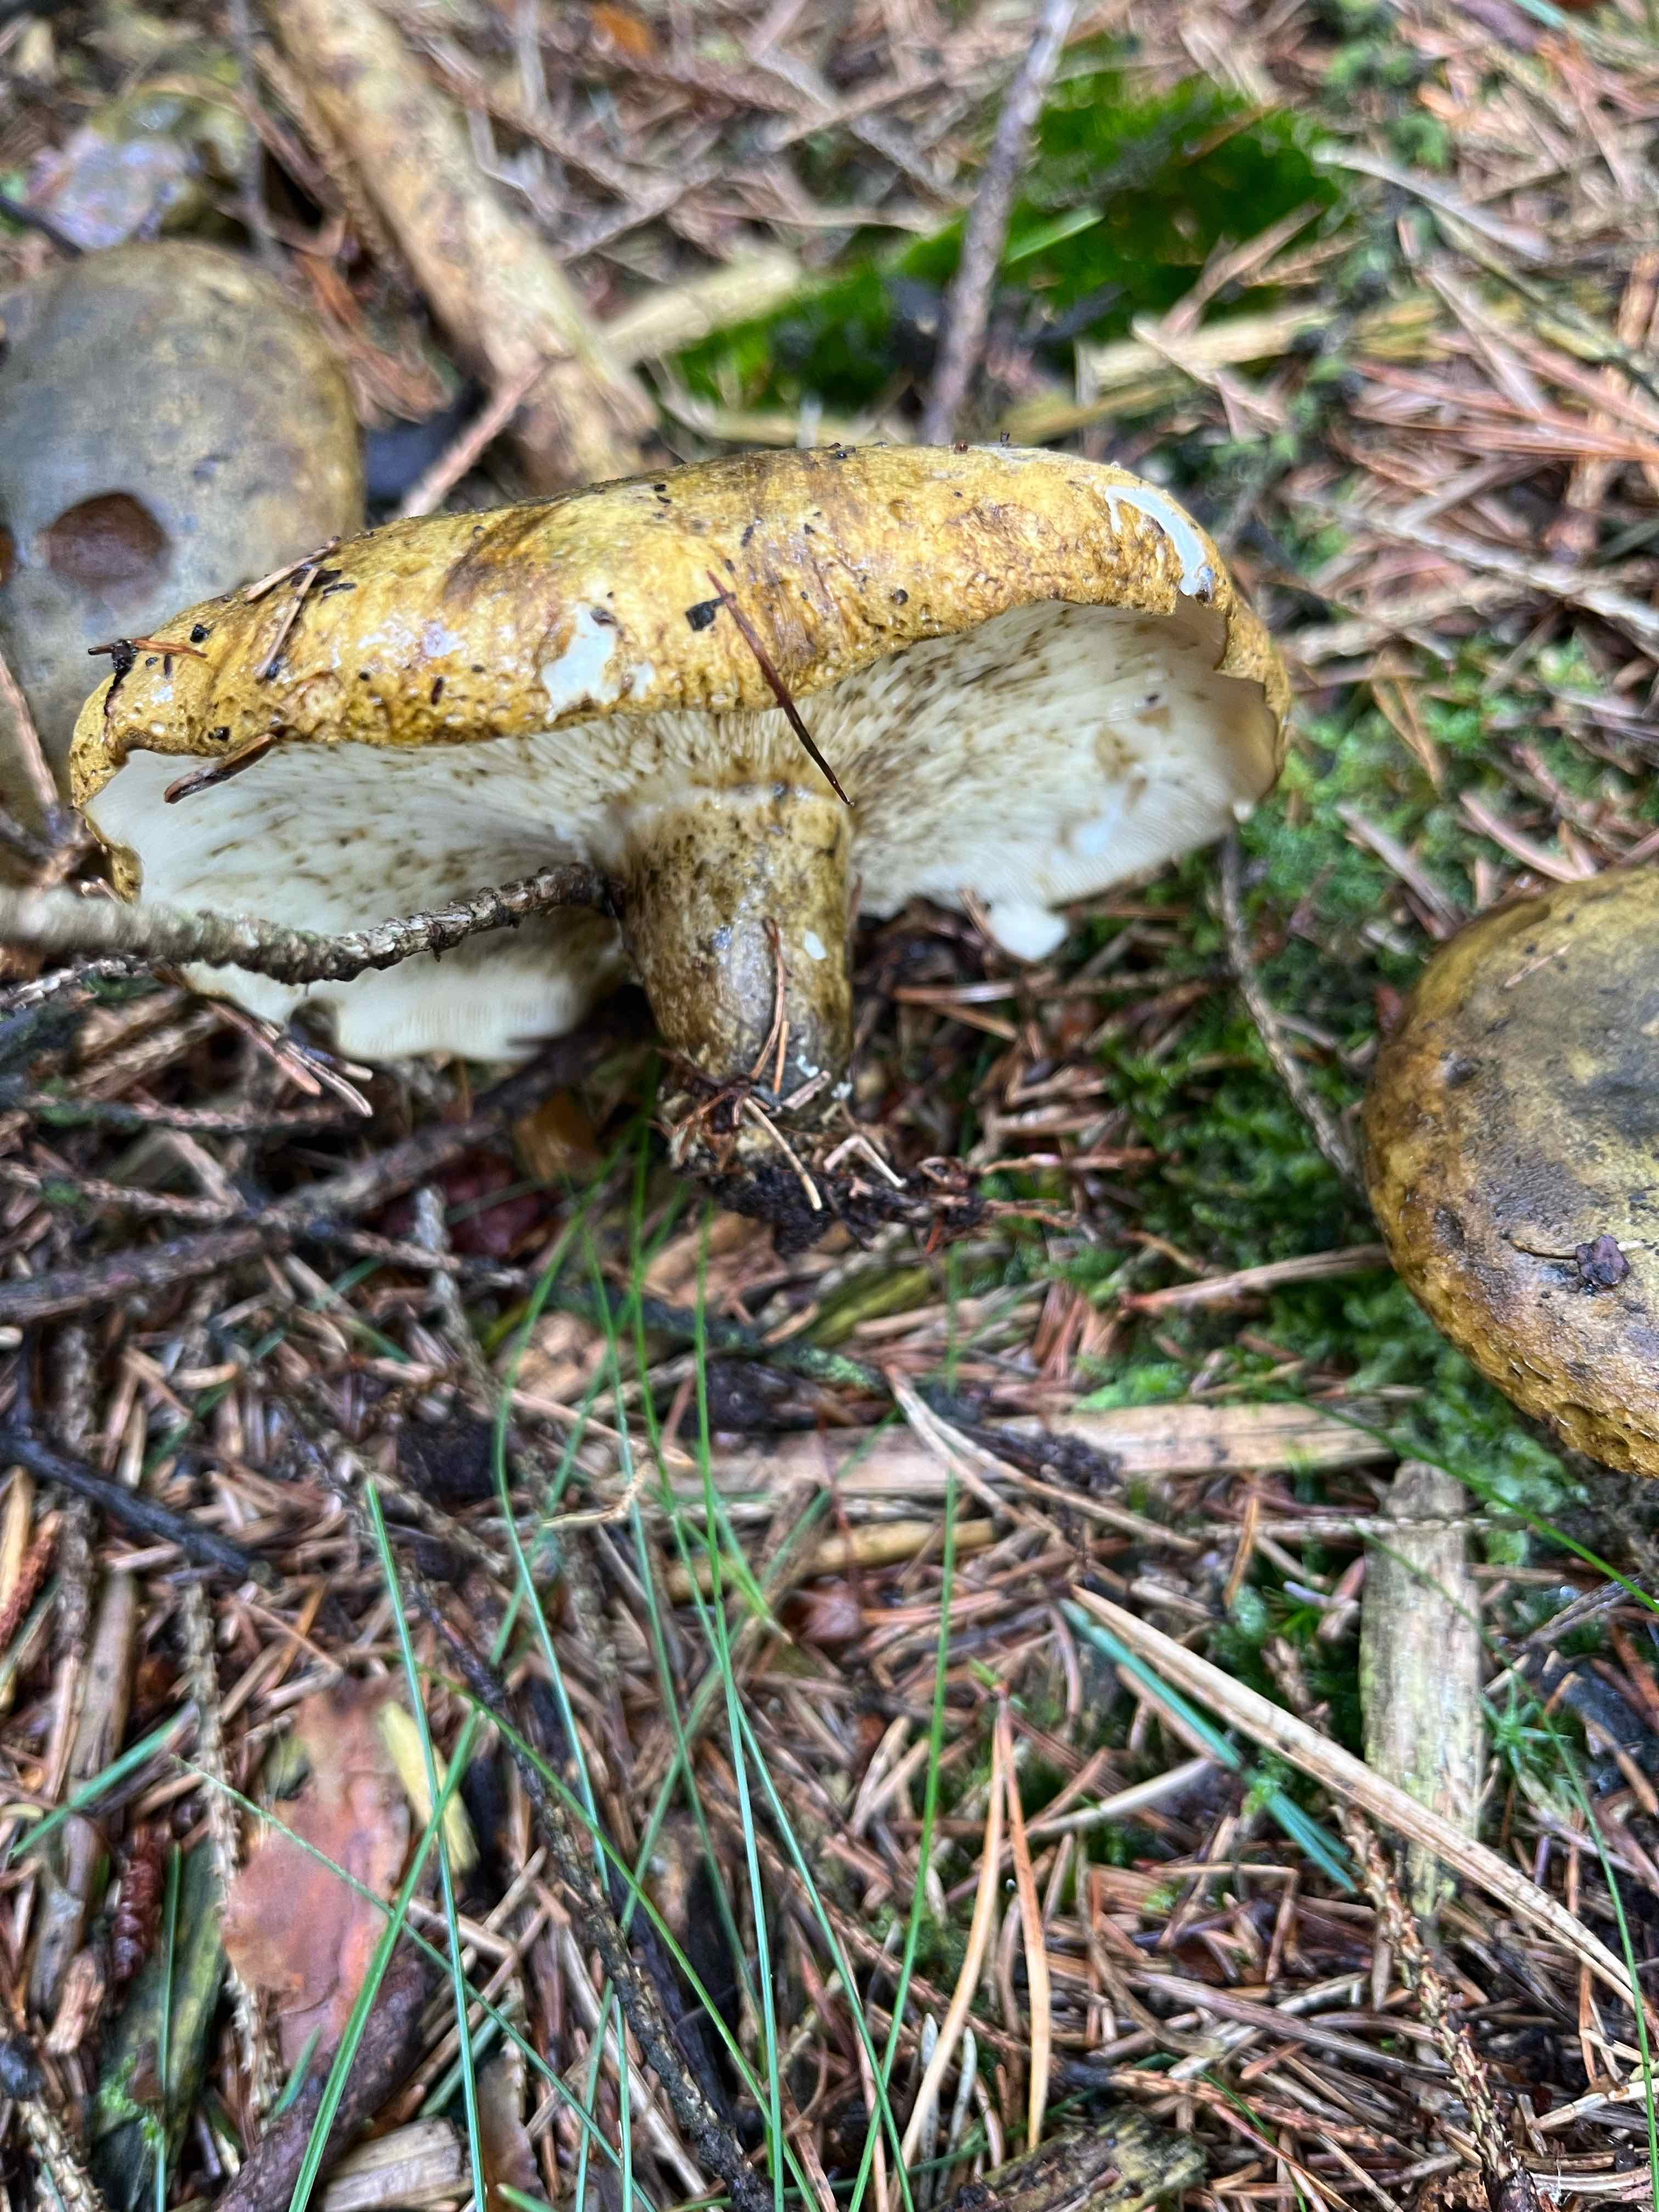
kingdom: Fungi
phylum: Basidiomycota
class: Agaricomycetes
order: Russulales
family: Russulaceae
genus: Lactarius
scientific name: Lactarius necator
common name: manddraber-mælkehat
